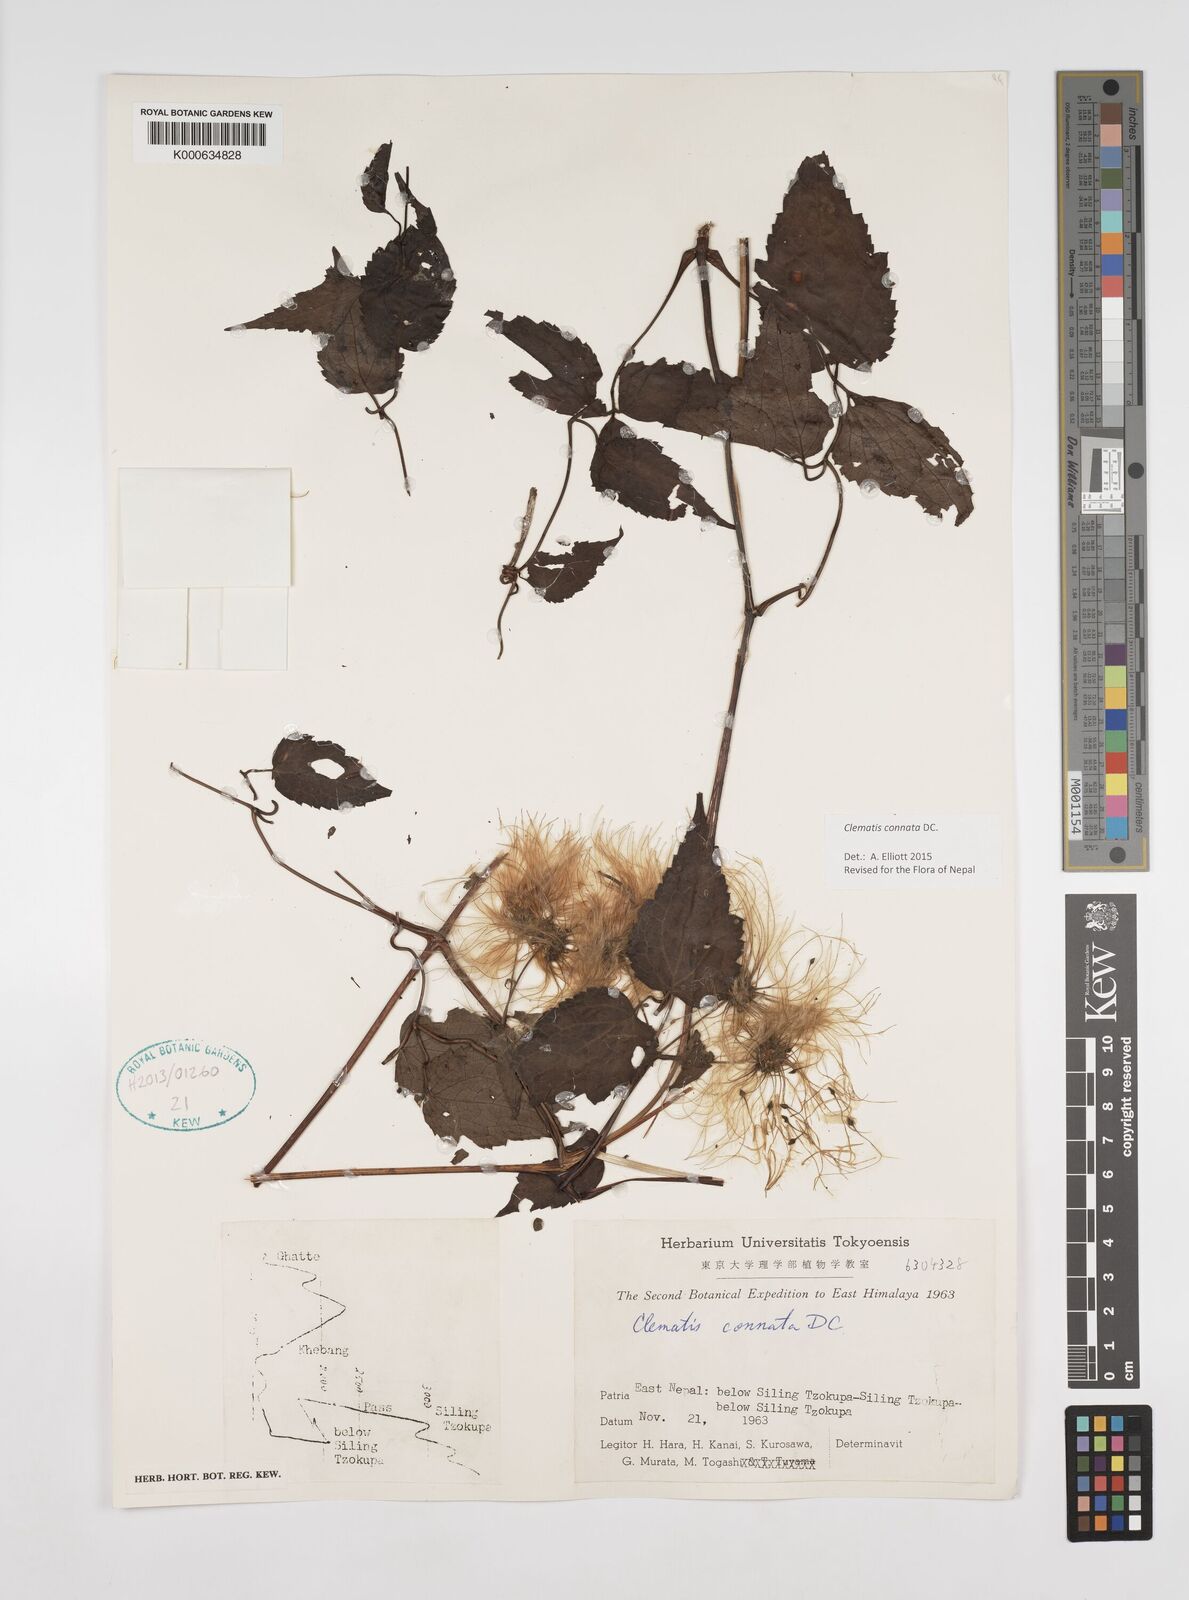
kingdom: Plantae
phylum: Tracheophyta
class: Magnoliopsida
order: Ranunculales
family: Ranunculaceae
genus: Clematis
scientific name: Clematis connata
